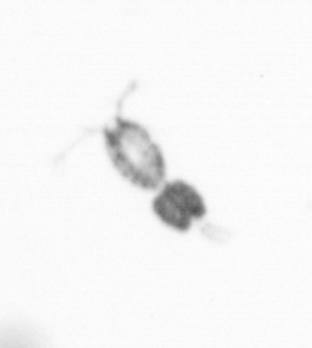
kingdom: Animalia
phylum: Arthropoda
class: Copepoda
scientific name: Copepoda
